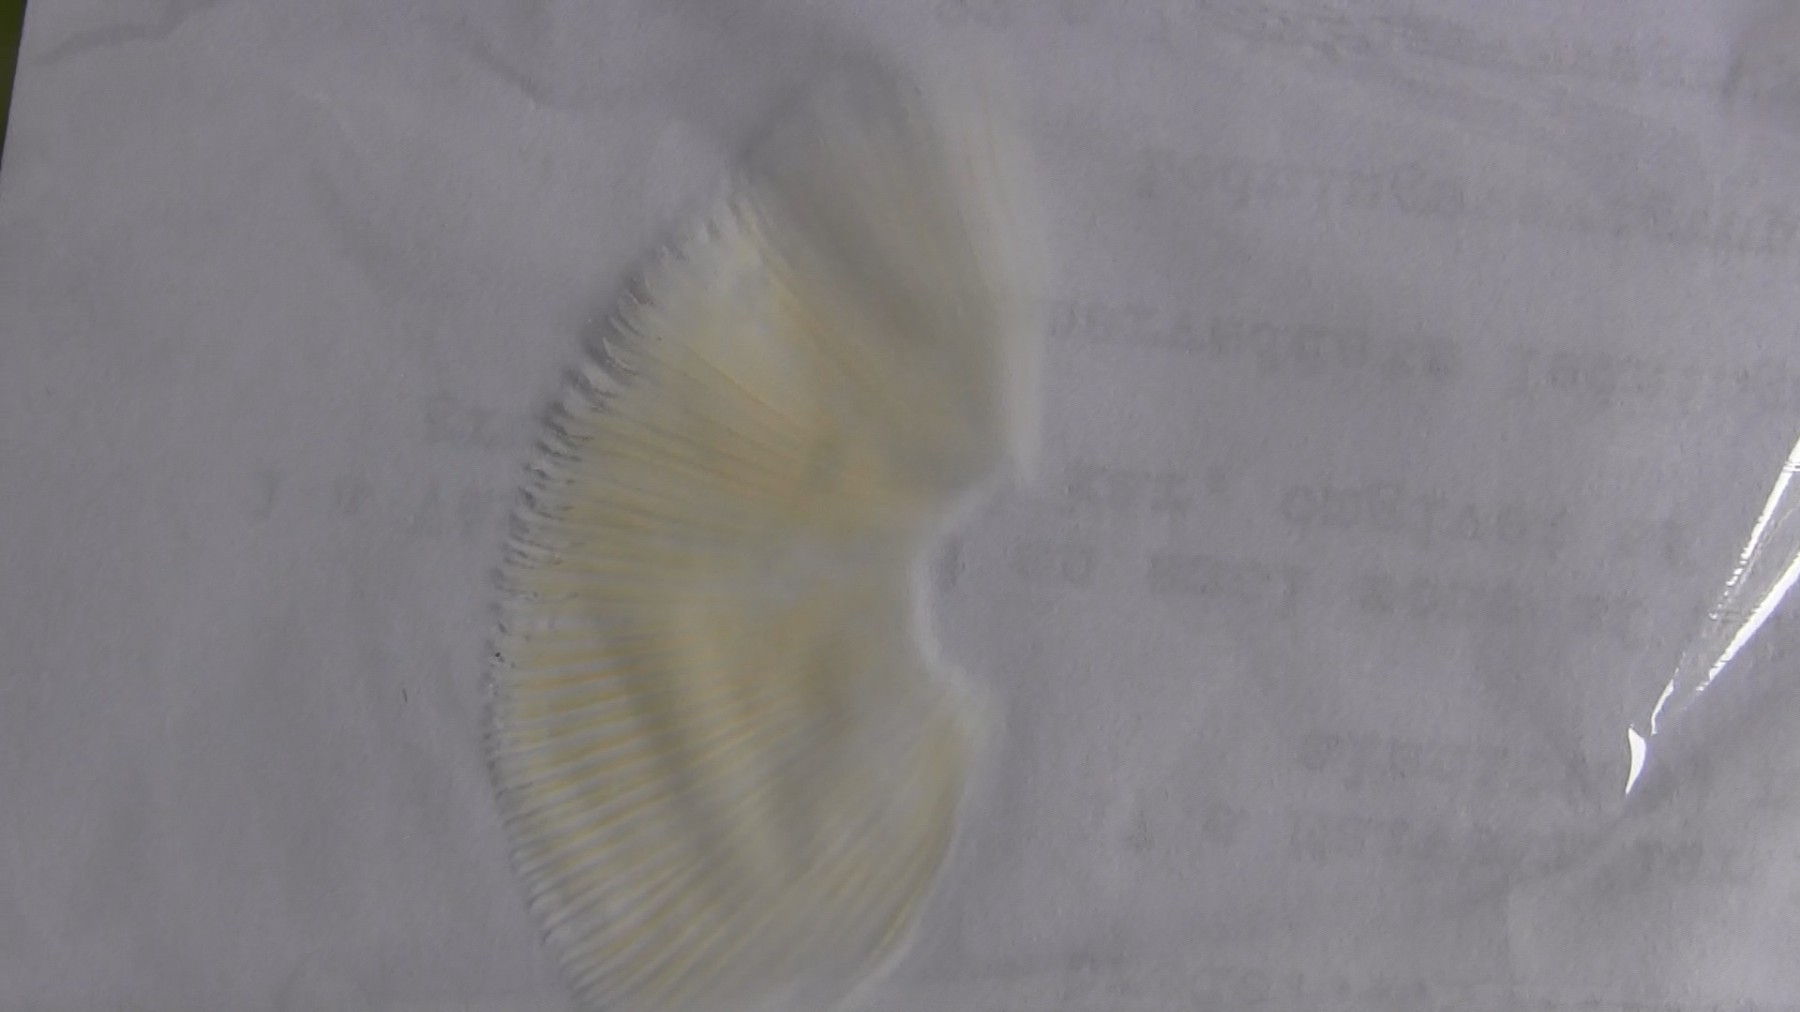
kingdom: Fungi
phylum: Basidiomycota
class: Agaricomycetes
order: Russulales
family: Russulaceae
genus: Russula
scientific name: Russula solaris
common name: sol-skørhat
